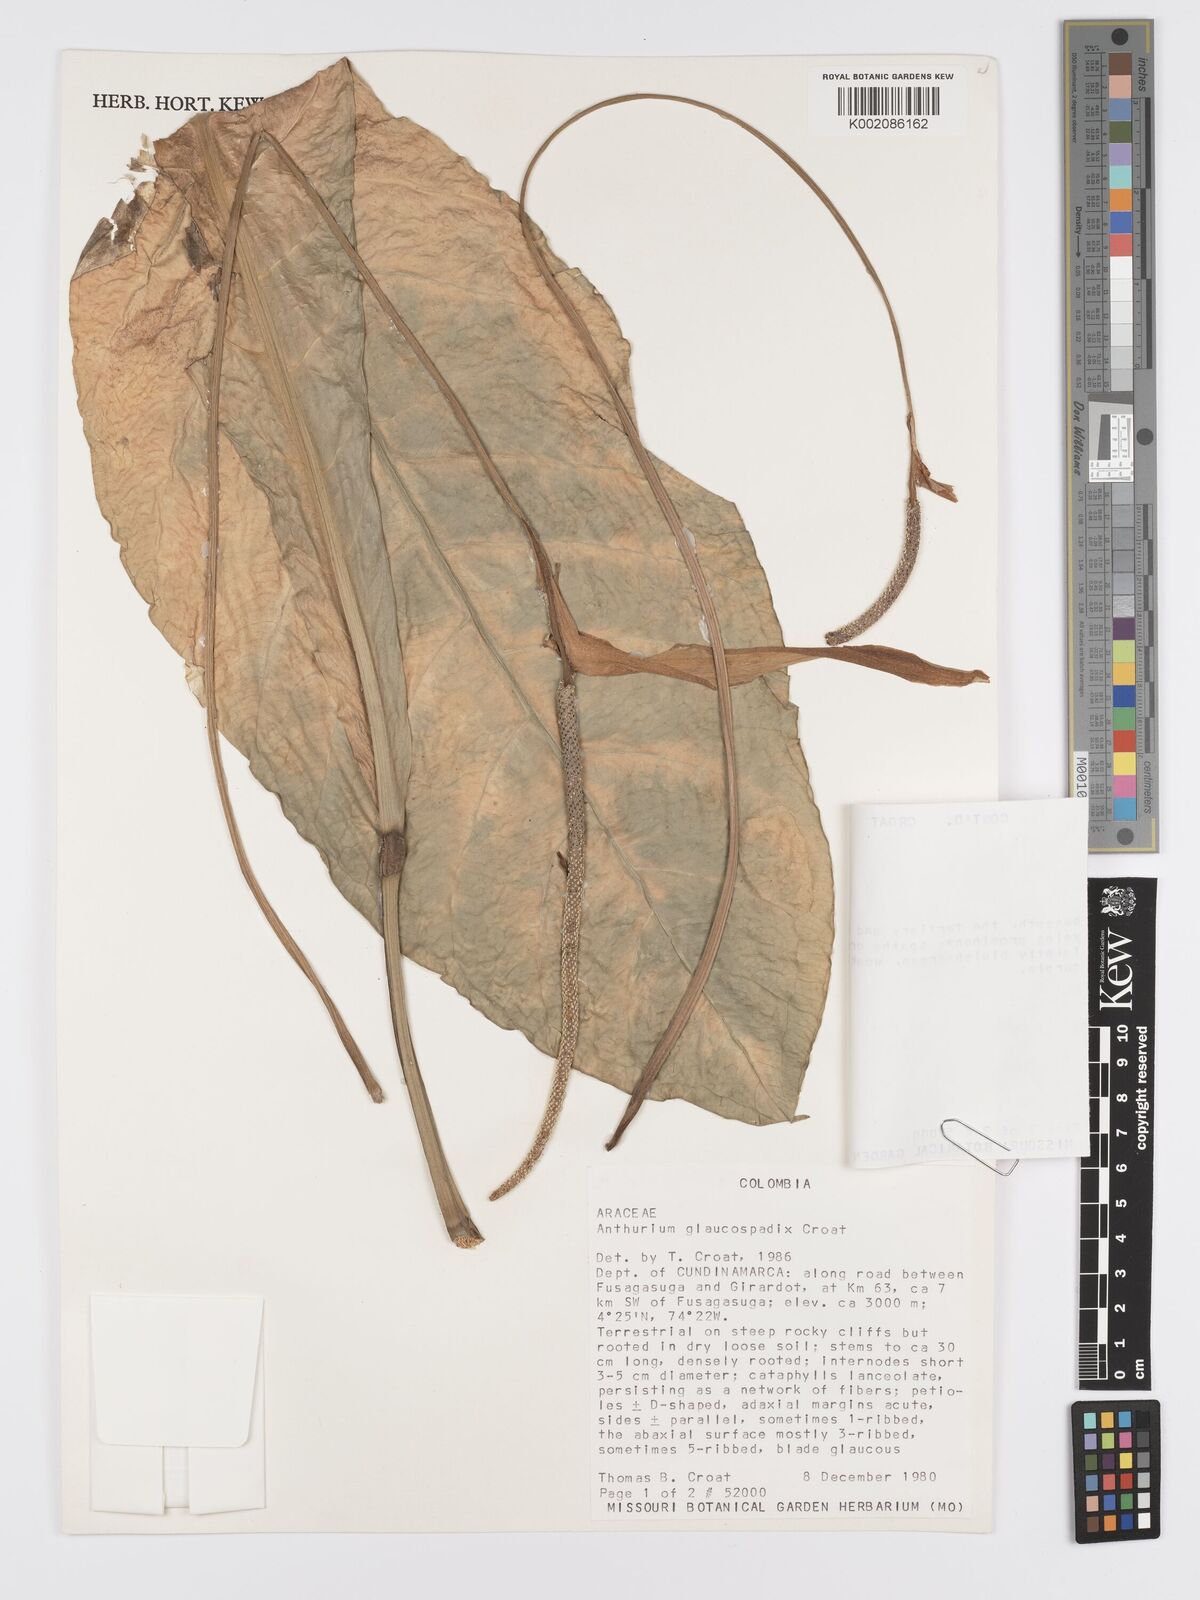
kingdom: Plantae
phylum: Tracheophyta
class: Liliopsida
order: Alismatales
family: Araceae
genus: Anthurium
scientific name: Anthurium glaucospadix
